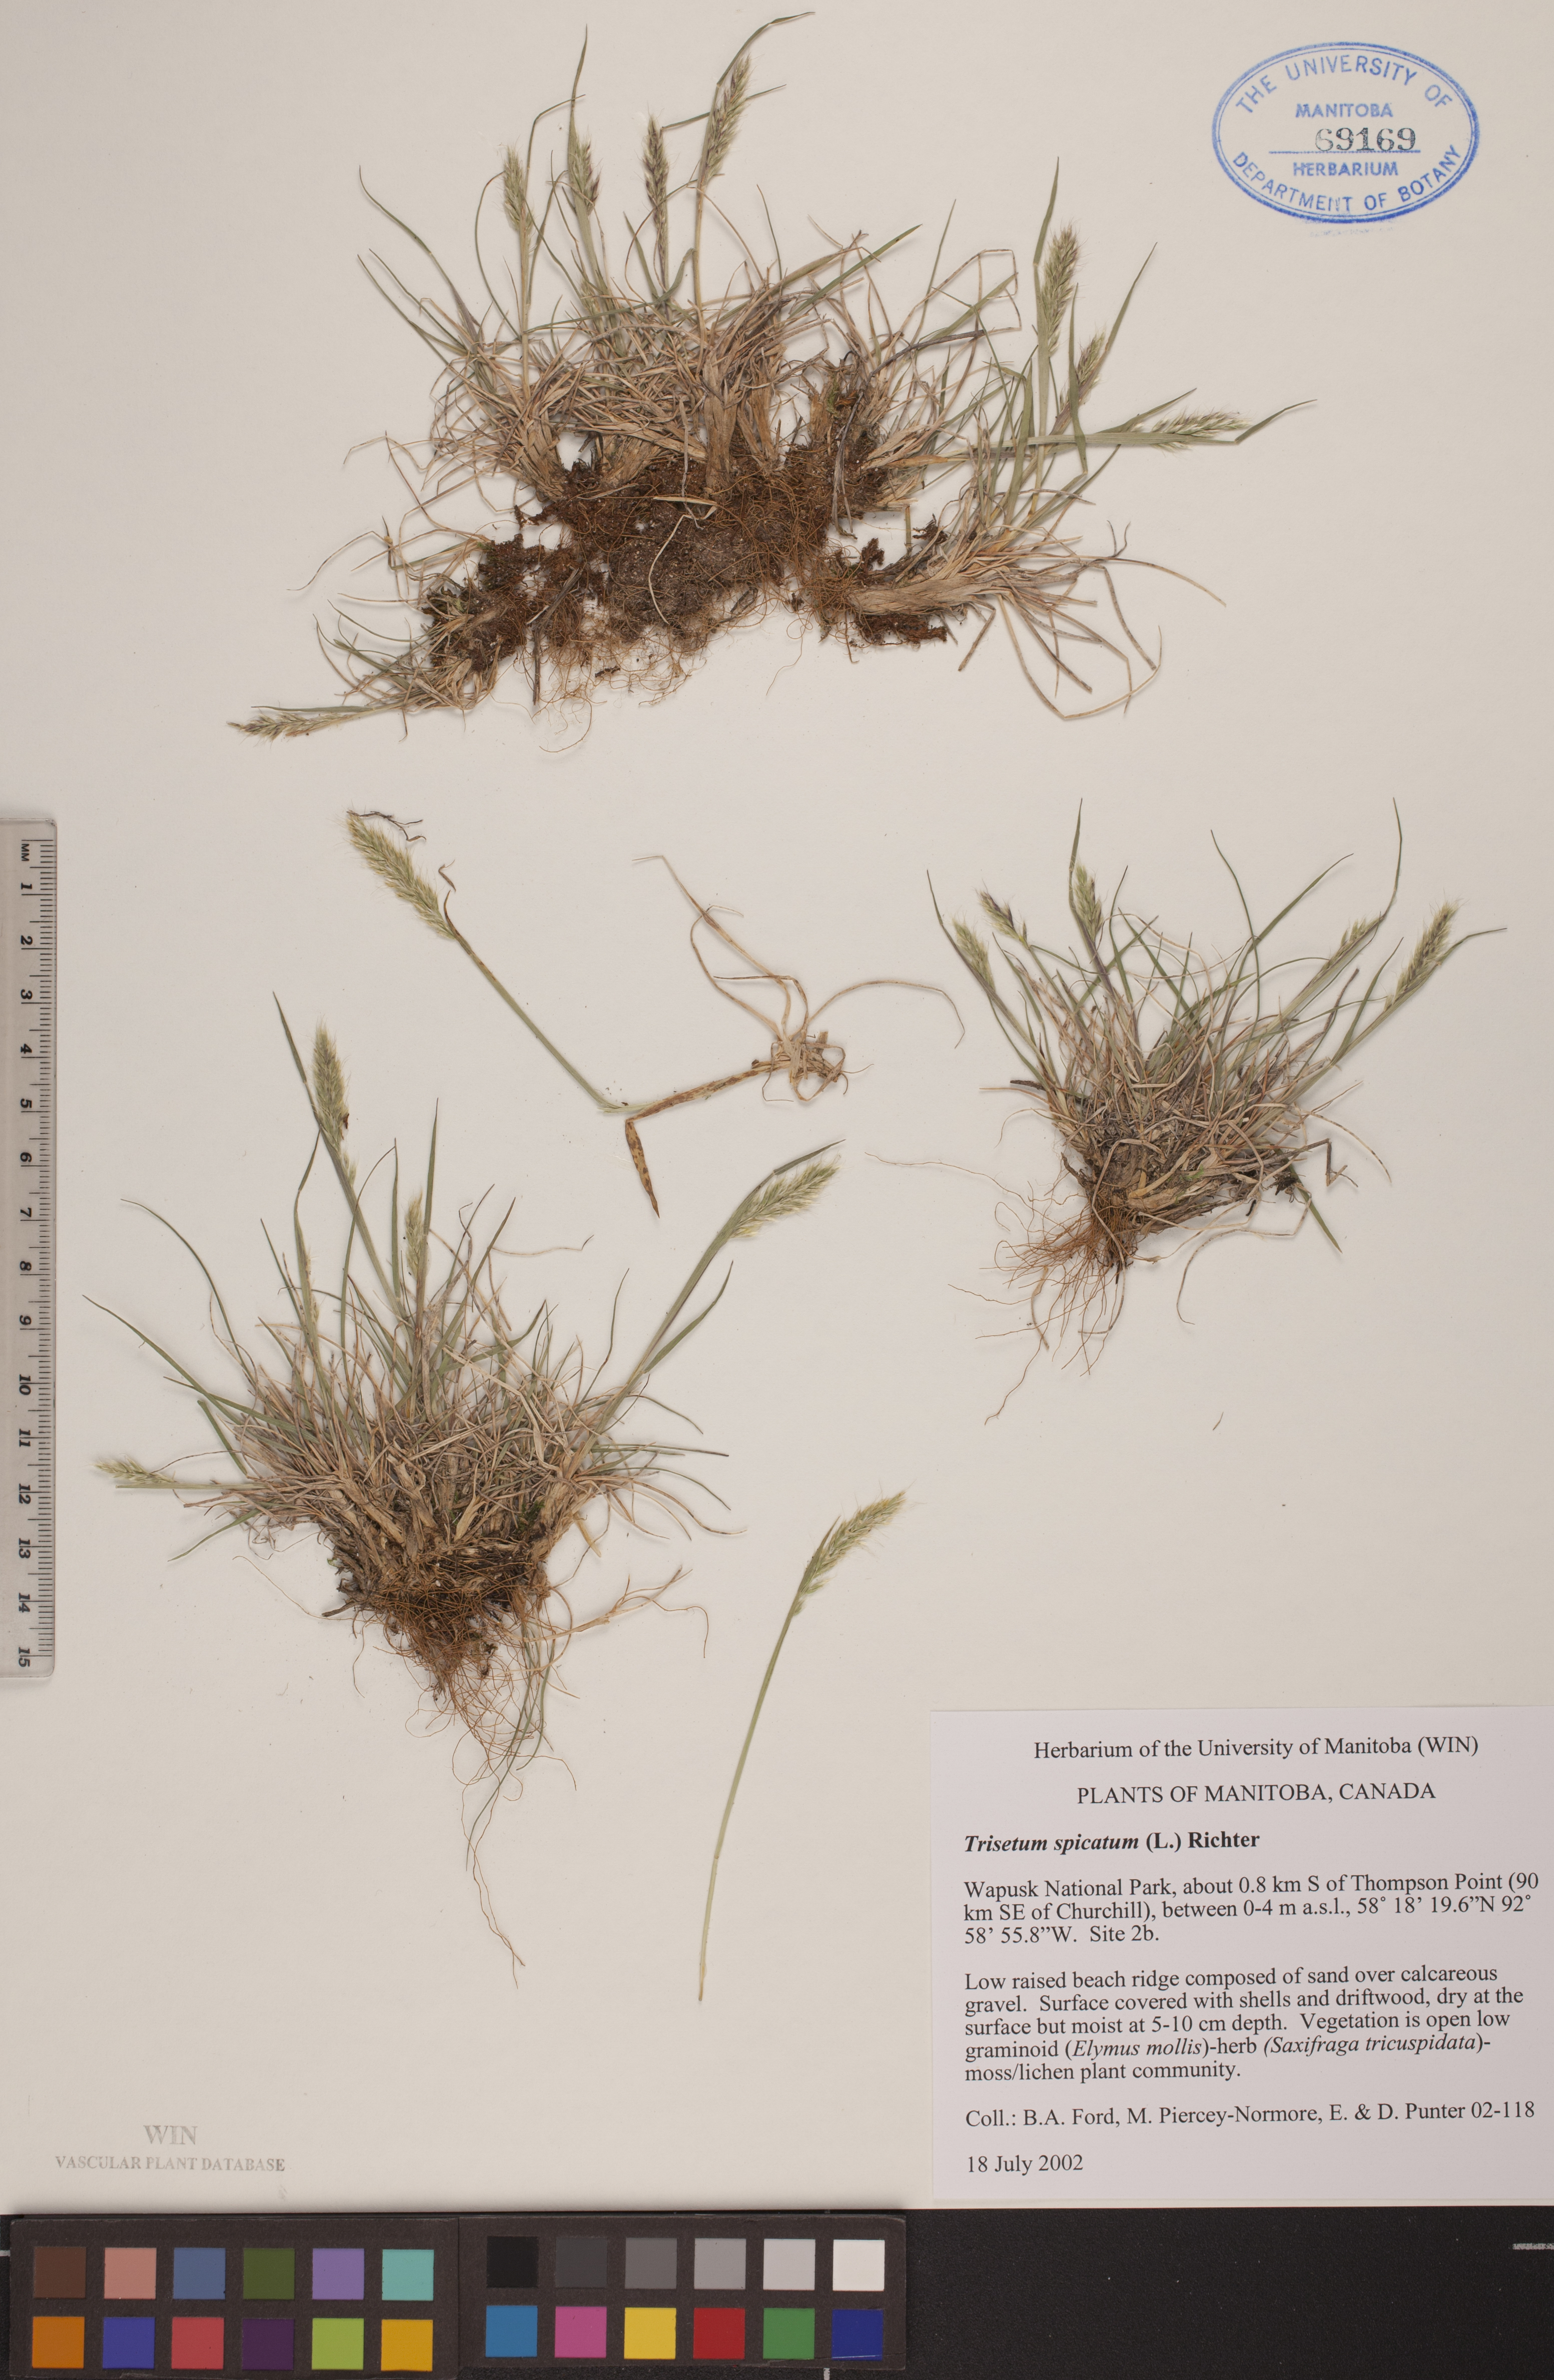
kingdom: Plantae
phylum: Tracheophyta
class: Liliopsida
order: Poales
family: Poaceae
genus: Koeleria
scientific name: Koeleria spicata
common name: Mountain trisetum
